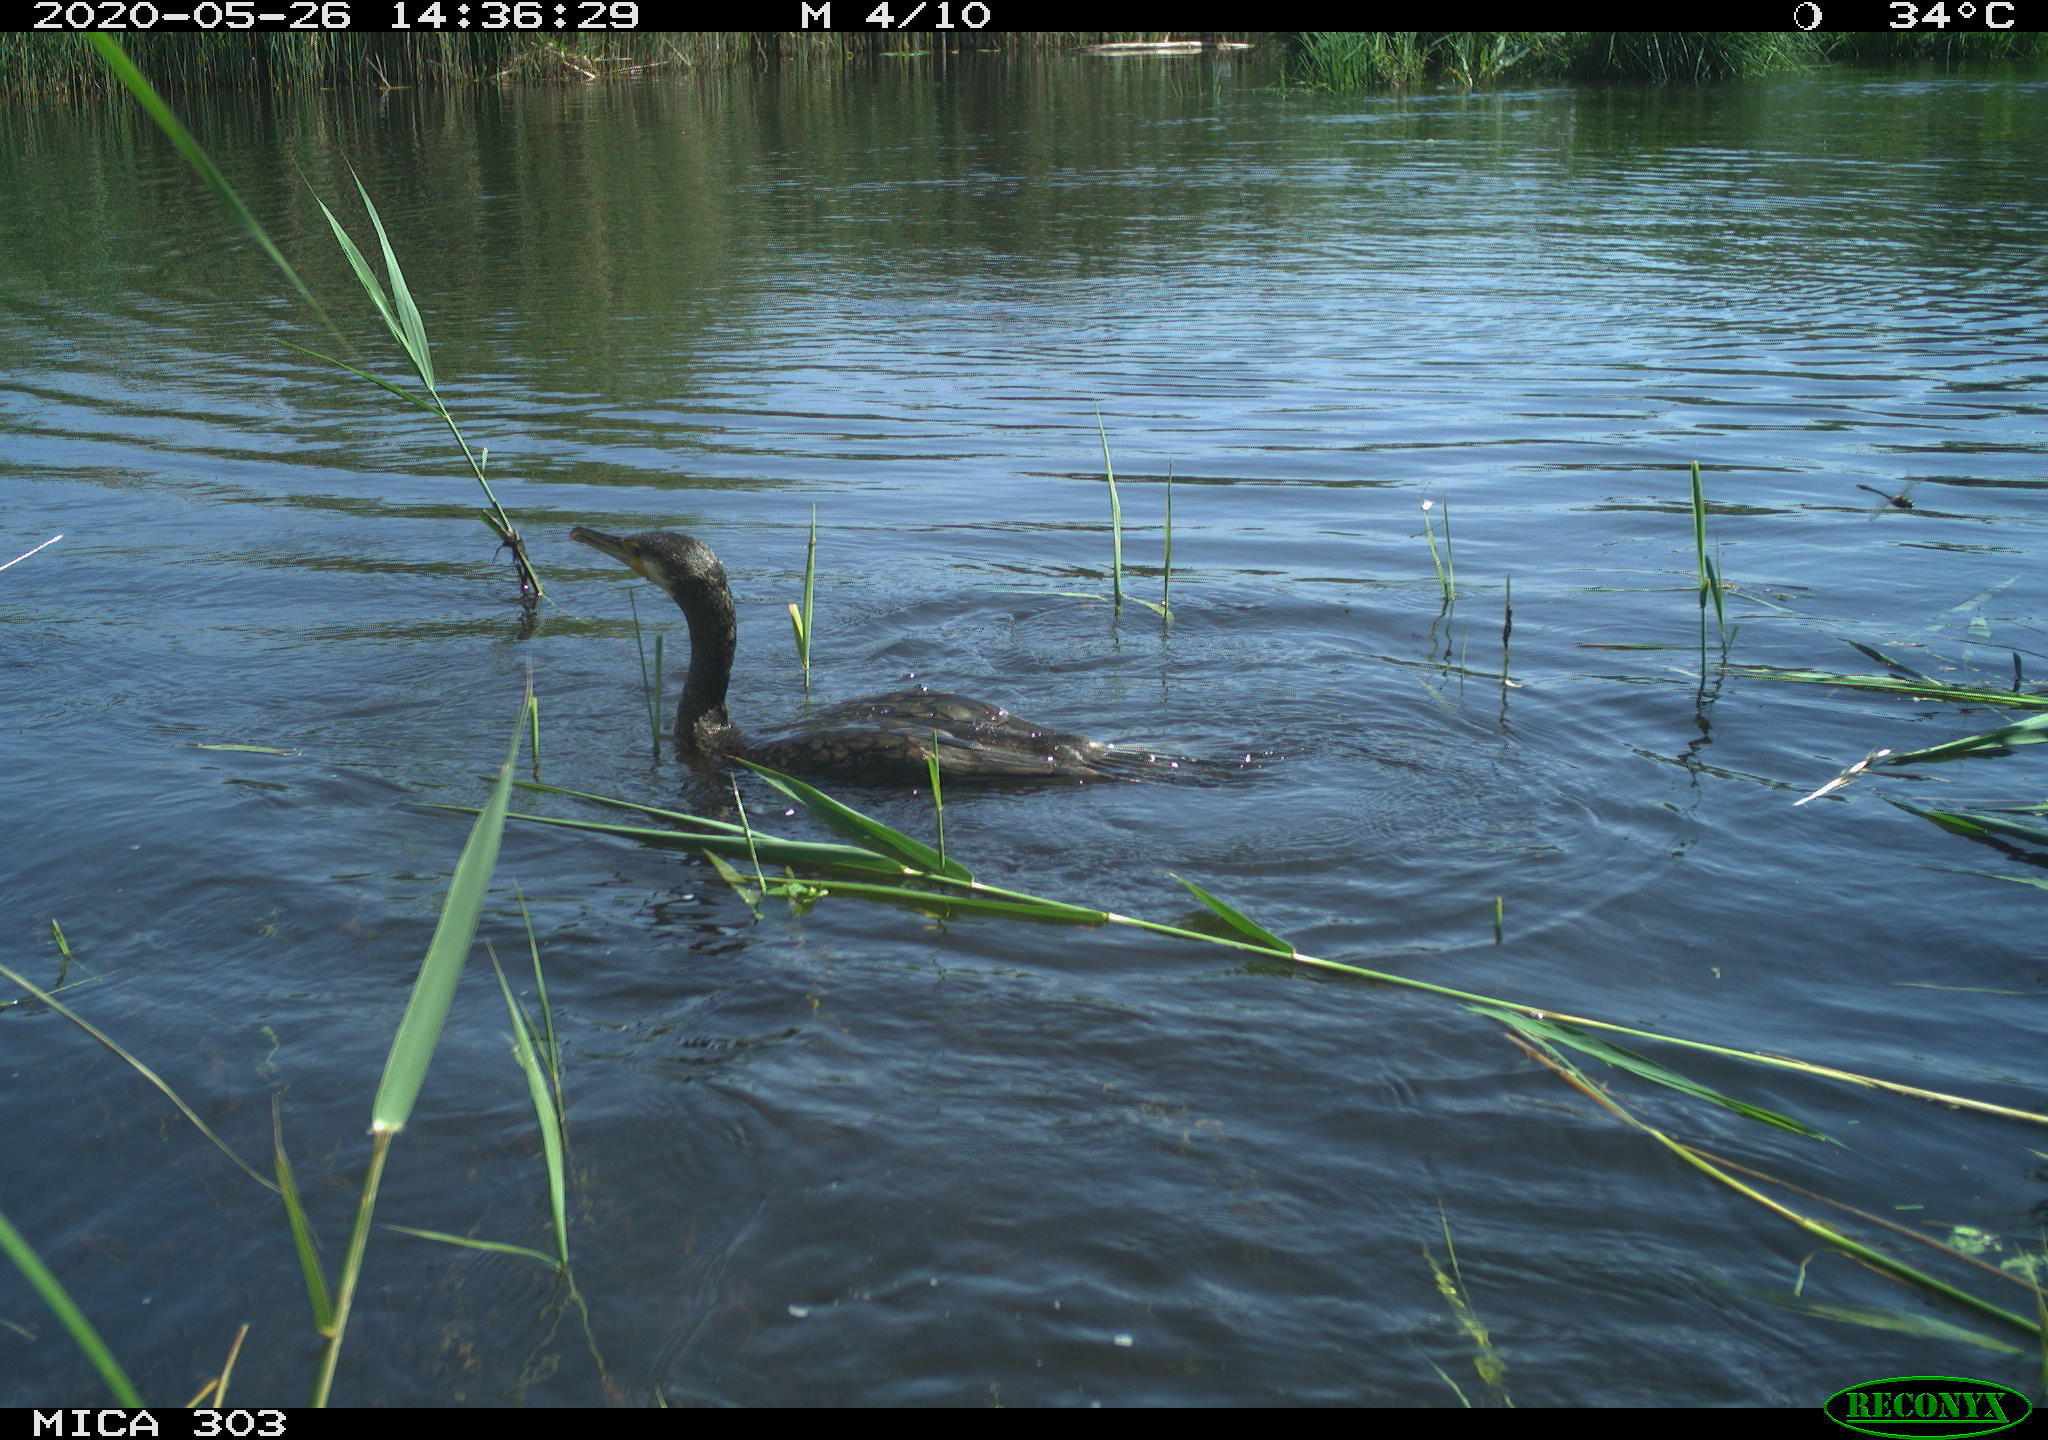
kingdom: Animalia
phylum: Chordata
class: Aves
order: Suliformes
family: Phalacrocoracidae
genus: Phalacrocorax
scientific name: Phalacrocorax carbo
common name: Great cormorant
